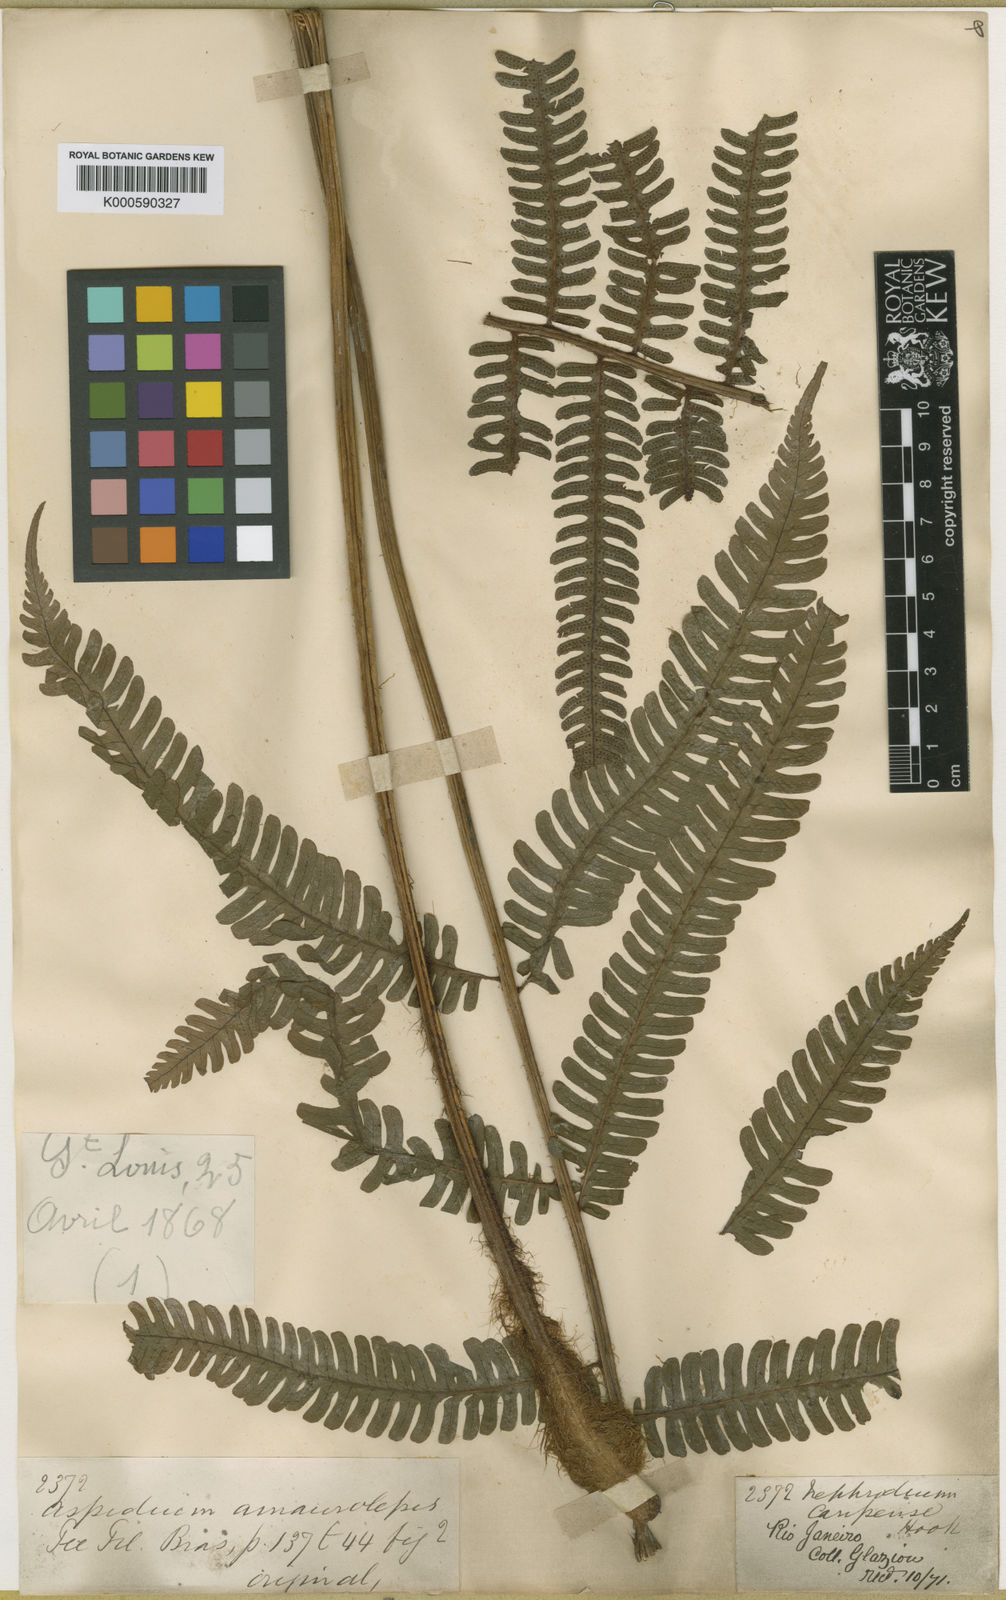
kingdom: Plantae
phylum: Tracheophyta
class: Polypodiopsida
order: Polypodiales
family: Dryopteridaceae
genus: Ctenitis
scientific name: Ctenitis distans
